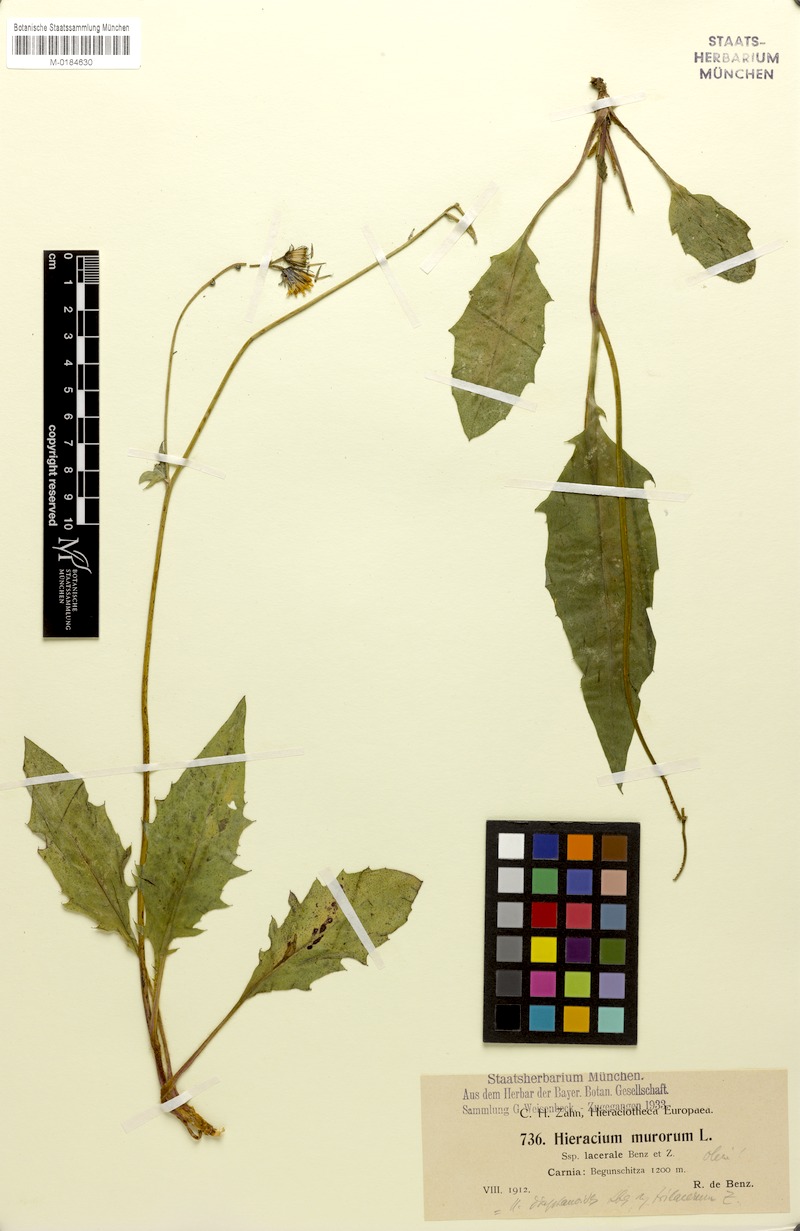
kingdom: Plantae
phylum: Tracheophyta
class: Magnoliopsida
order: Asterales
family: Asteraceae
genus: Hieracium
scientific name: Hieracium diaphanoides
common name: Fine-bracted hawkweed
